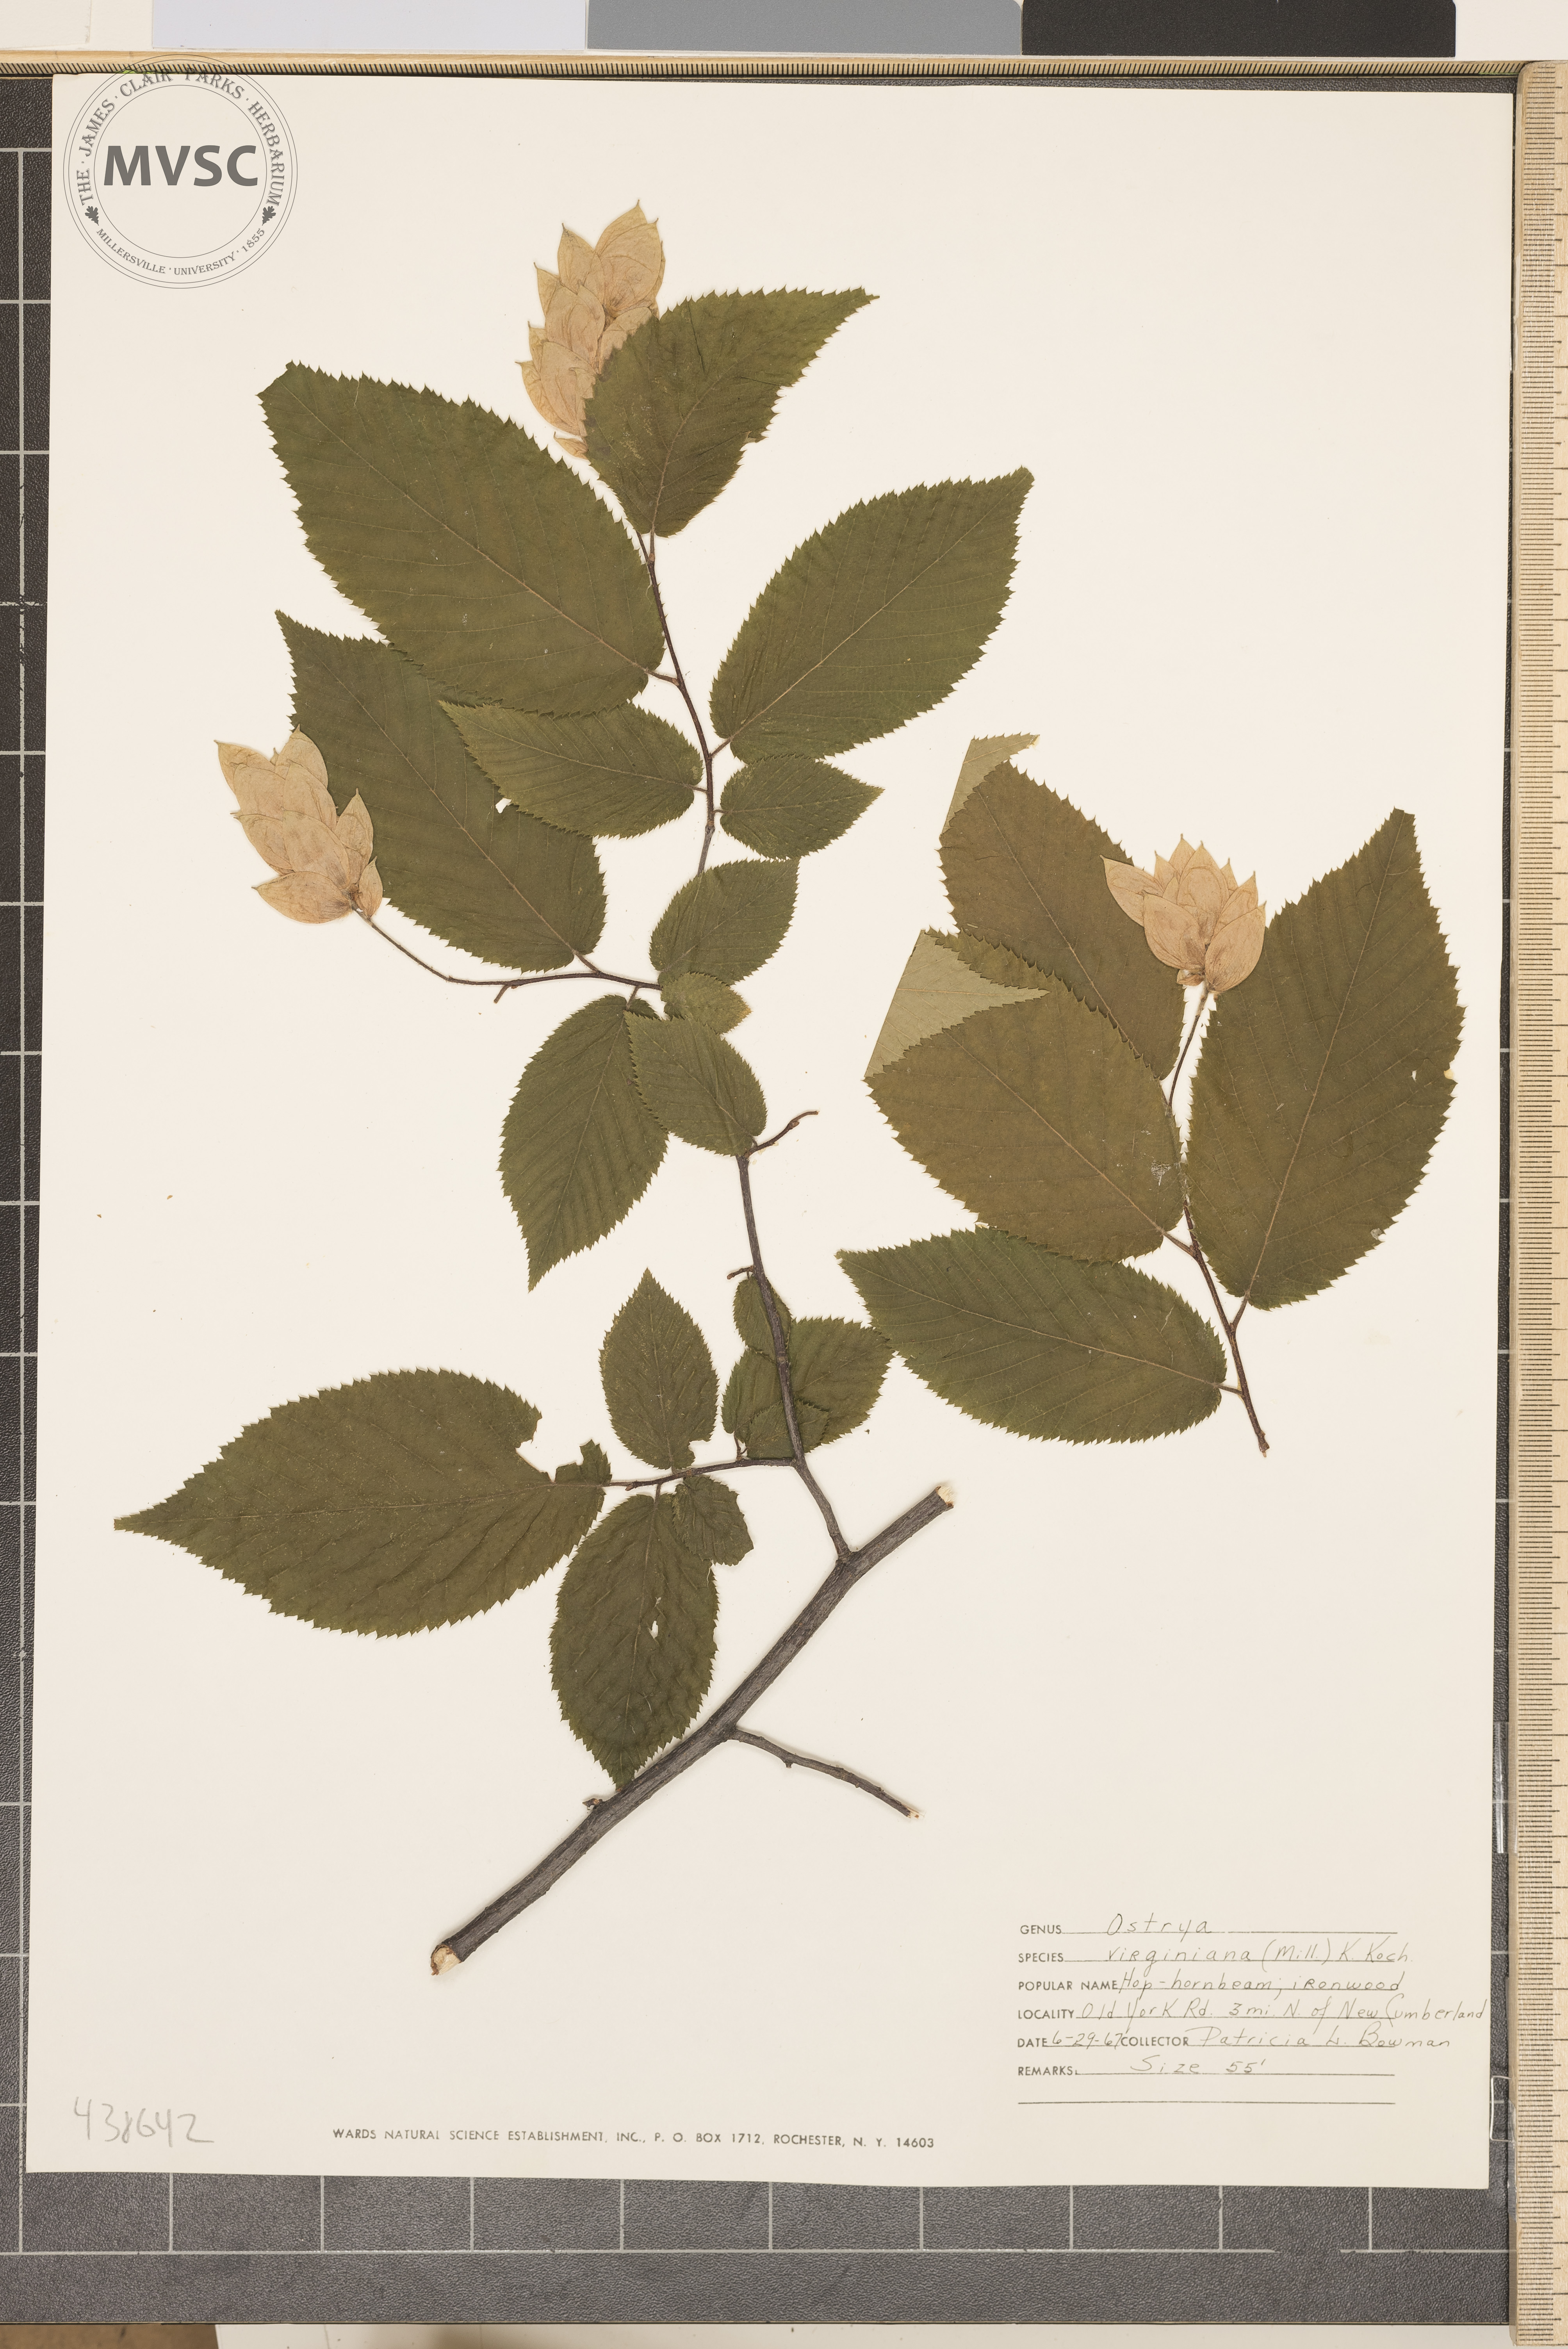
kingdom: Plantae
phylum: Tracheophyta
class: Magnoliopsida
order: Fagales
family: Betulaceae
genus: Ostrya
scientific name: Ostrya virginiana
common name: Ironwood
